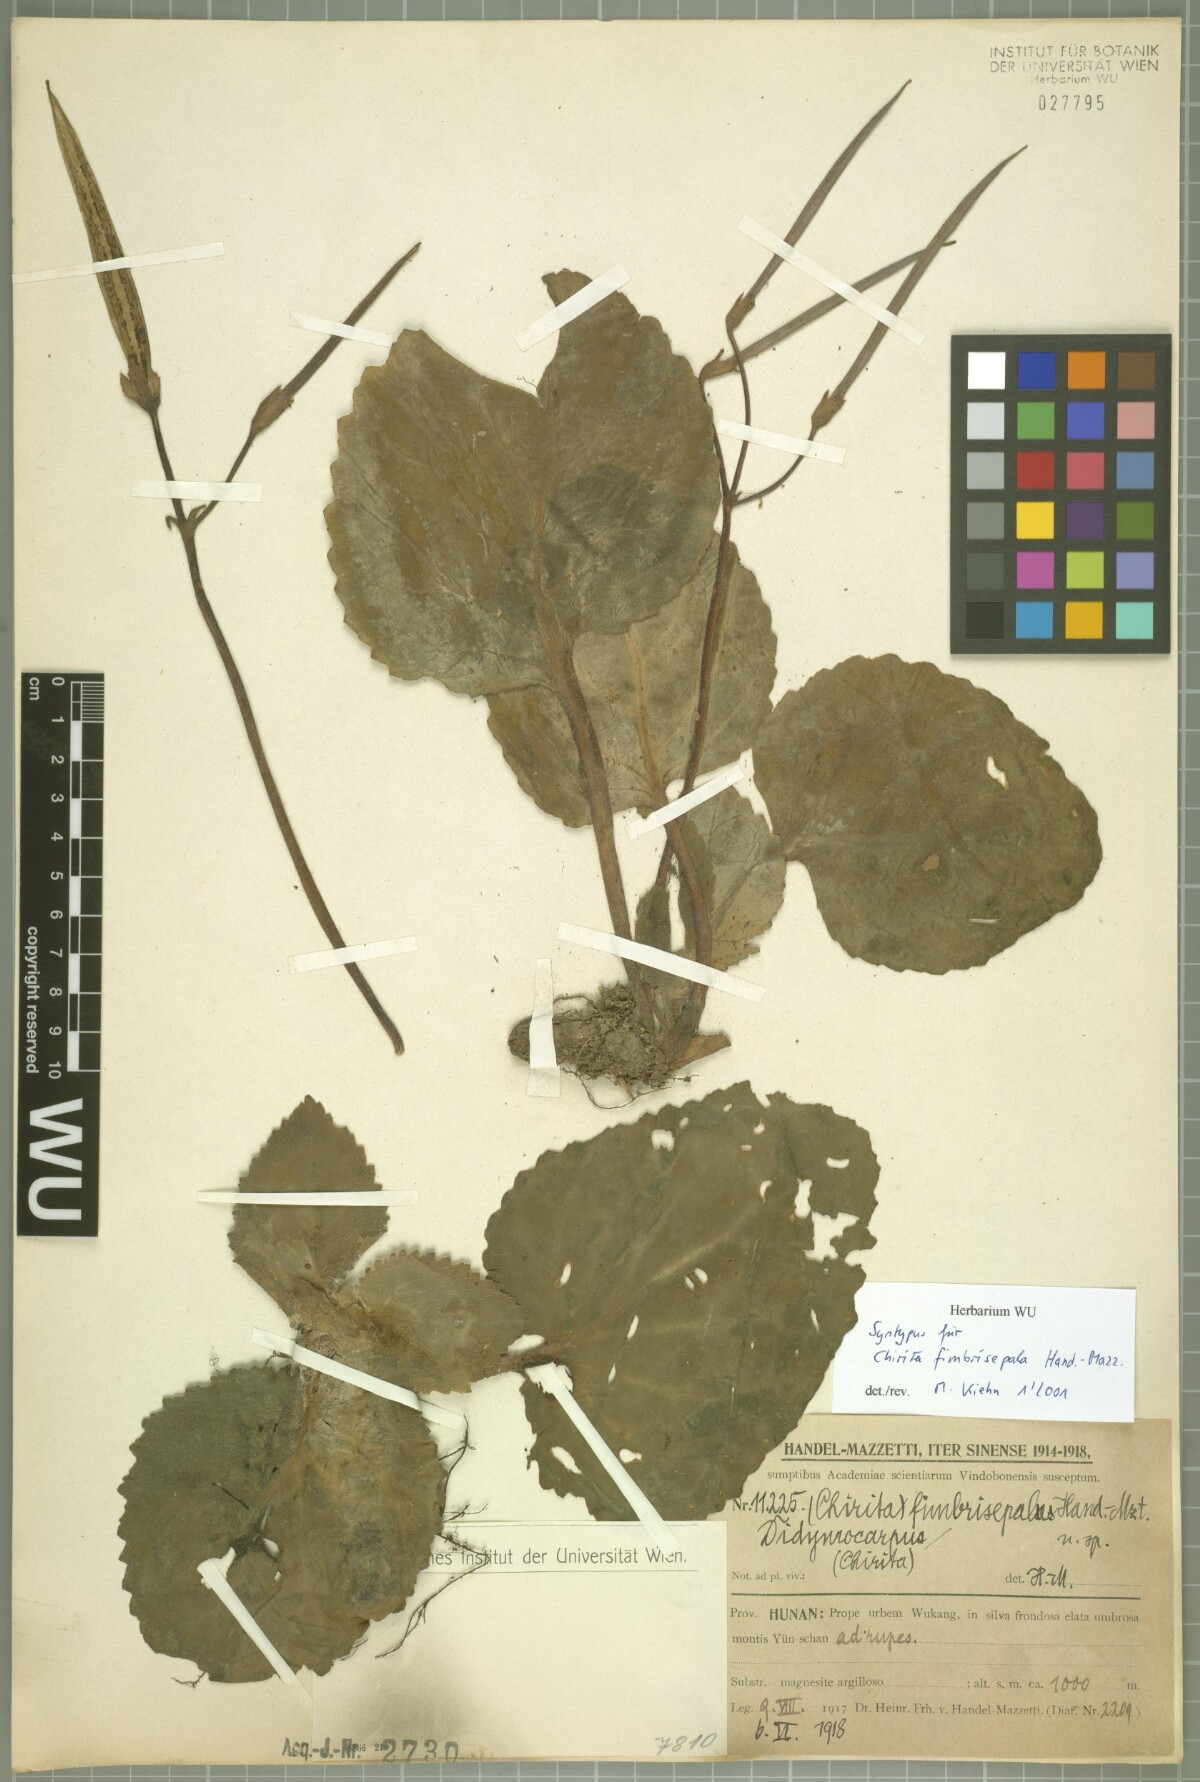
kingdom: Plantae
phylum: Tracheophyta
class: Magnoliopsida
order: Lamiales
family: Gesneriaceae
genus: Primulina
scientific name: Primulina fimbrisepala
